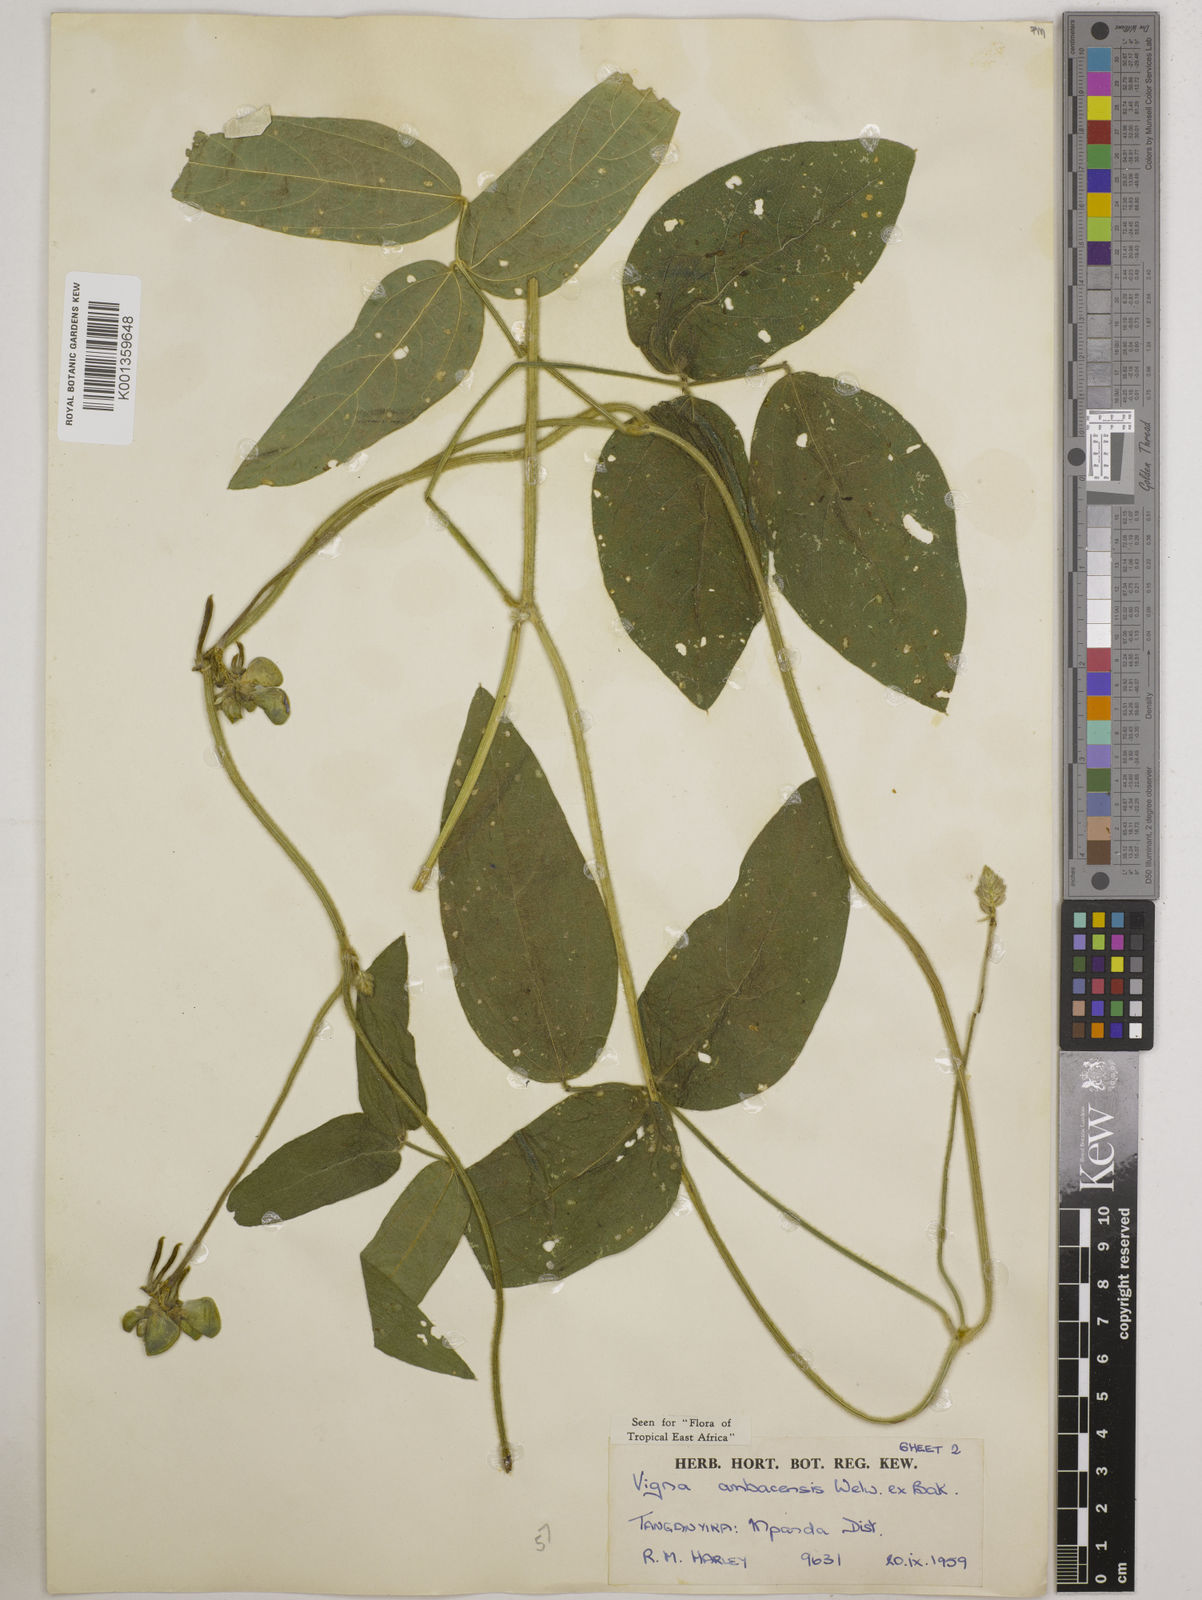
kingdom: Plantae
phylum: Tracheophyta
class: Magnoliopsida
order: Fabales
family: Fabaceae
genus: Vigna
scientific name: Vigna ambacensis
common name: Tsarkiyan zomo
